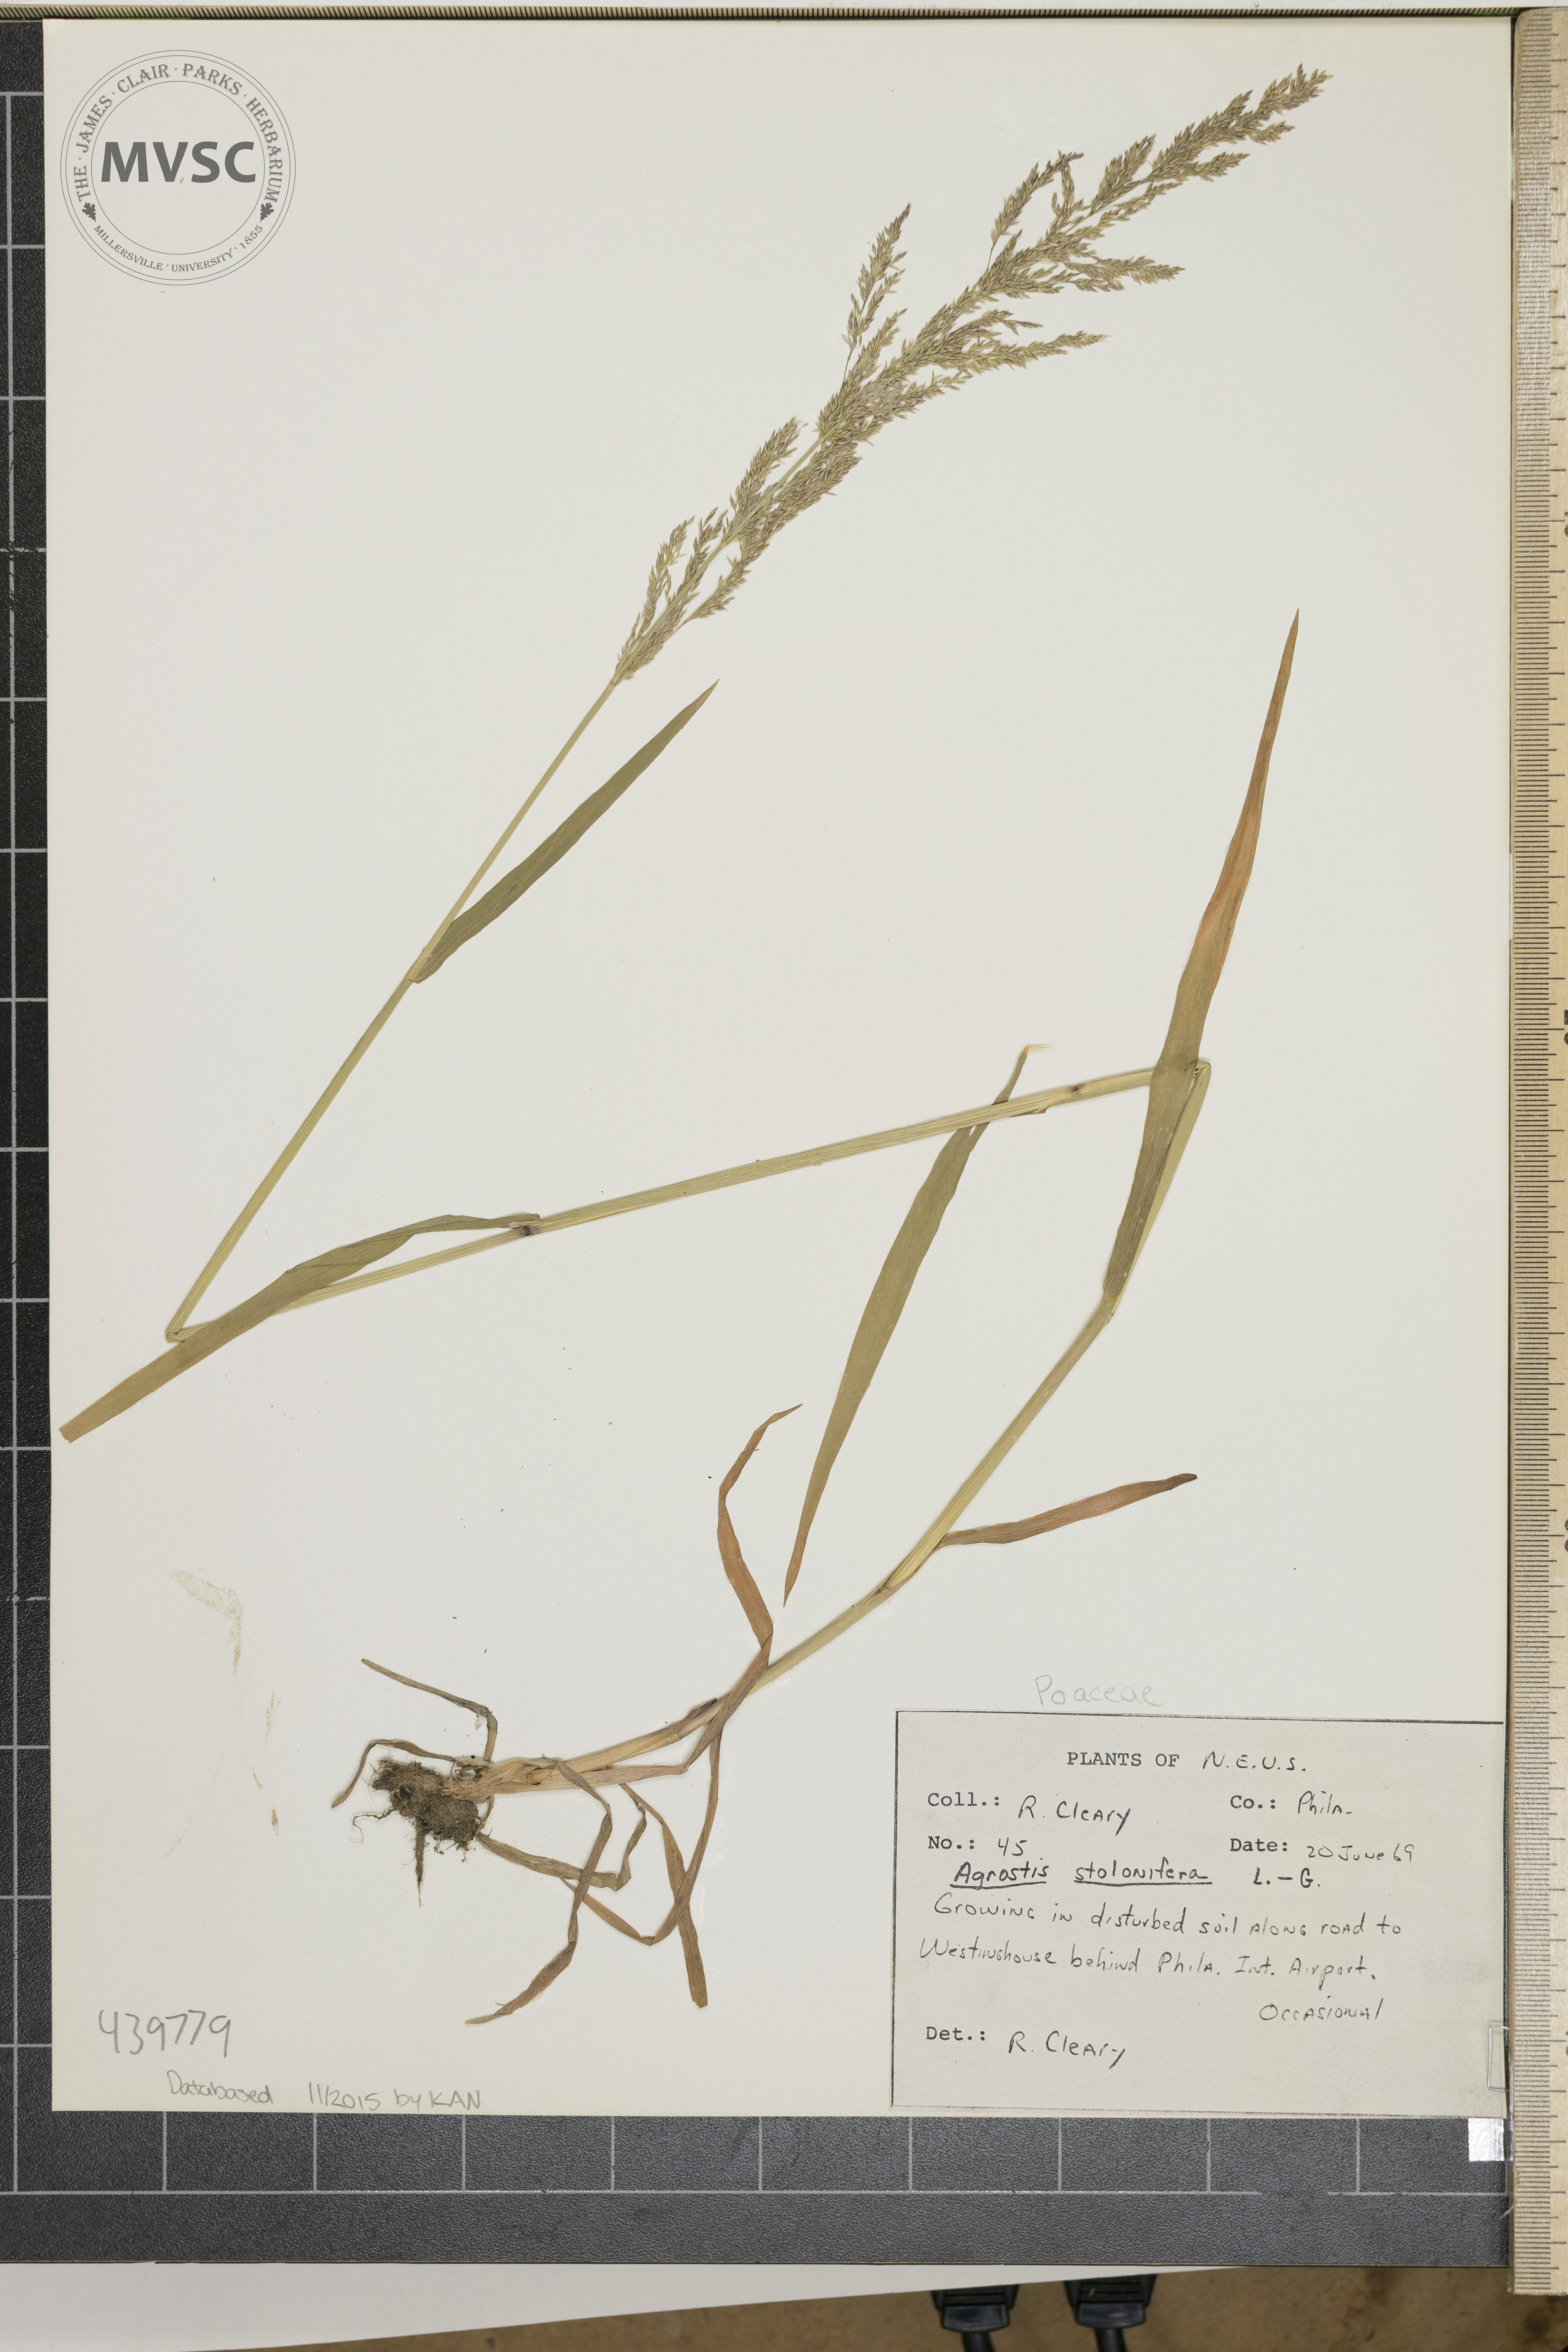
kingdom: Plantae
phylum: Tracheophyta
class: Liliopsida
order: Poales
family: Poaceae
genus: Agrostis
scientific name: Agrostis stolonifera
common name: Creeping bentgrass
